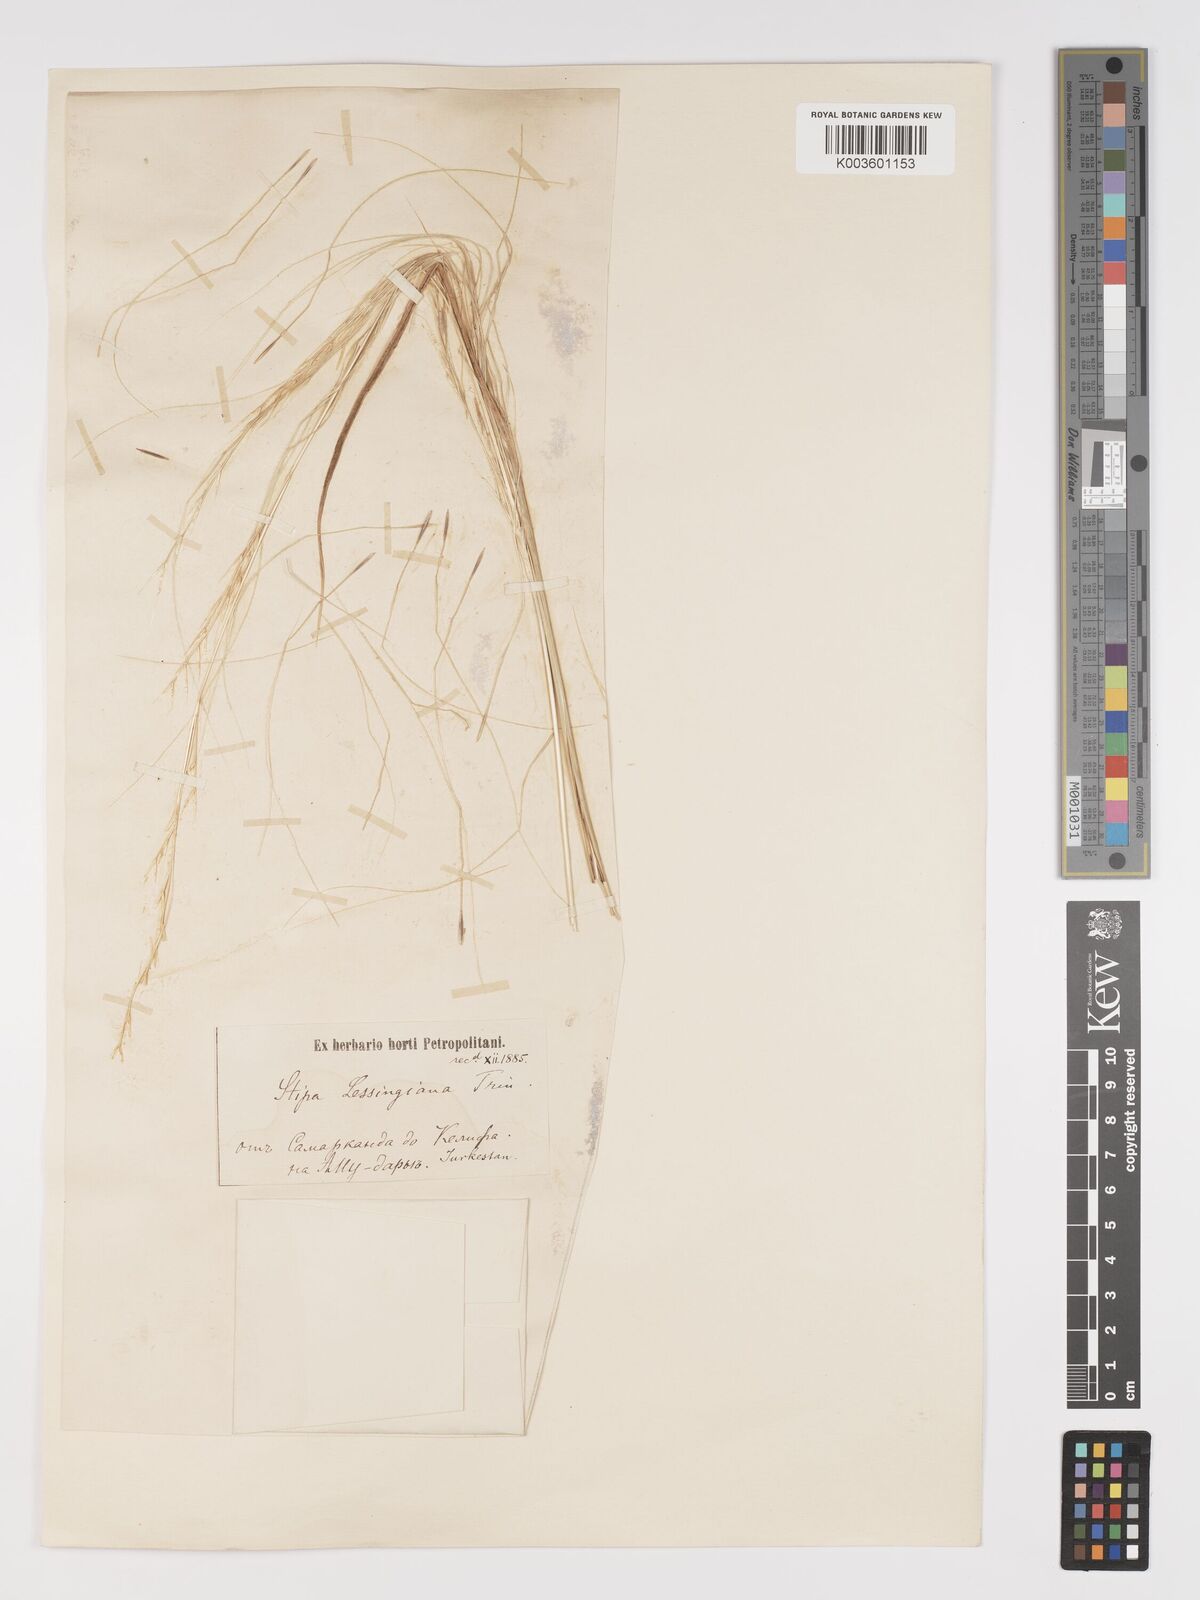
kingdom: Plantae
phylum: Tracheophyta
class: Liliopsida
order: Poales
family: Poaceae
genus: Stipa
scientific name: Stipa lessingiana
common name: Needle grass
